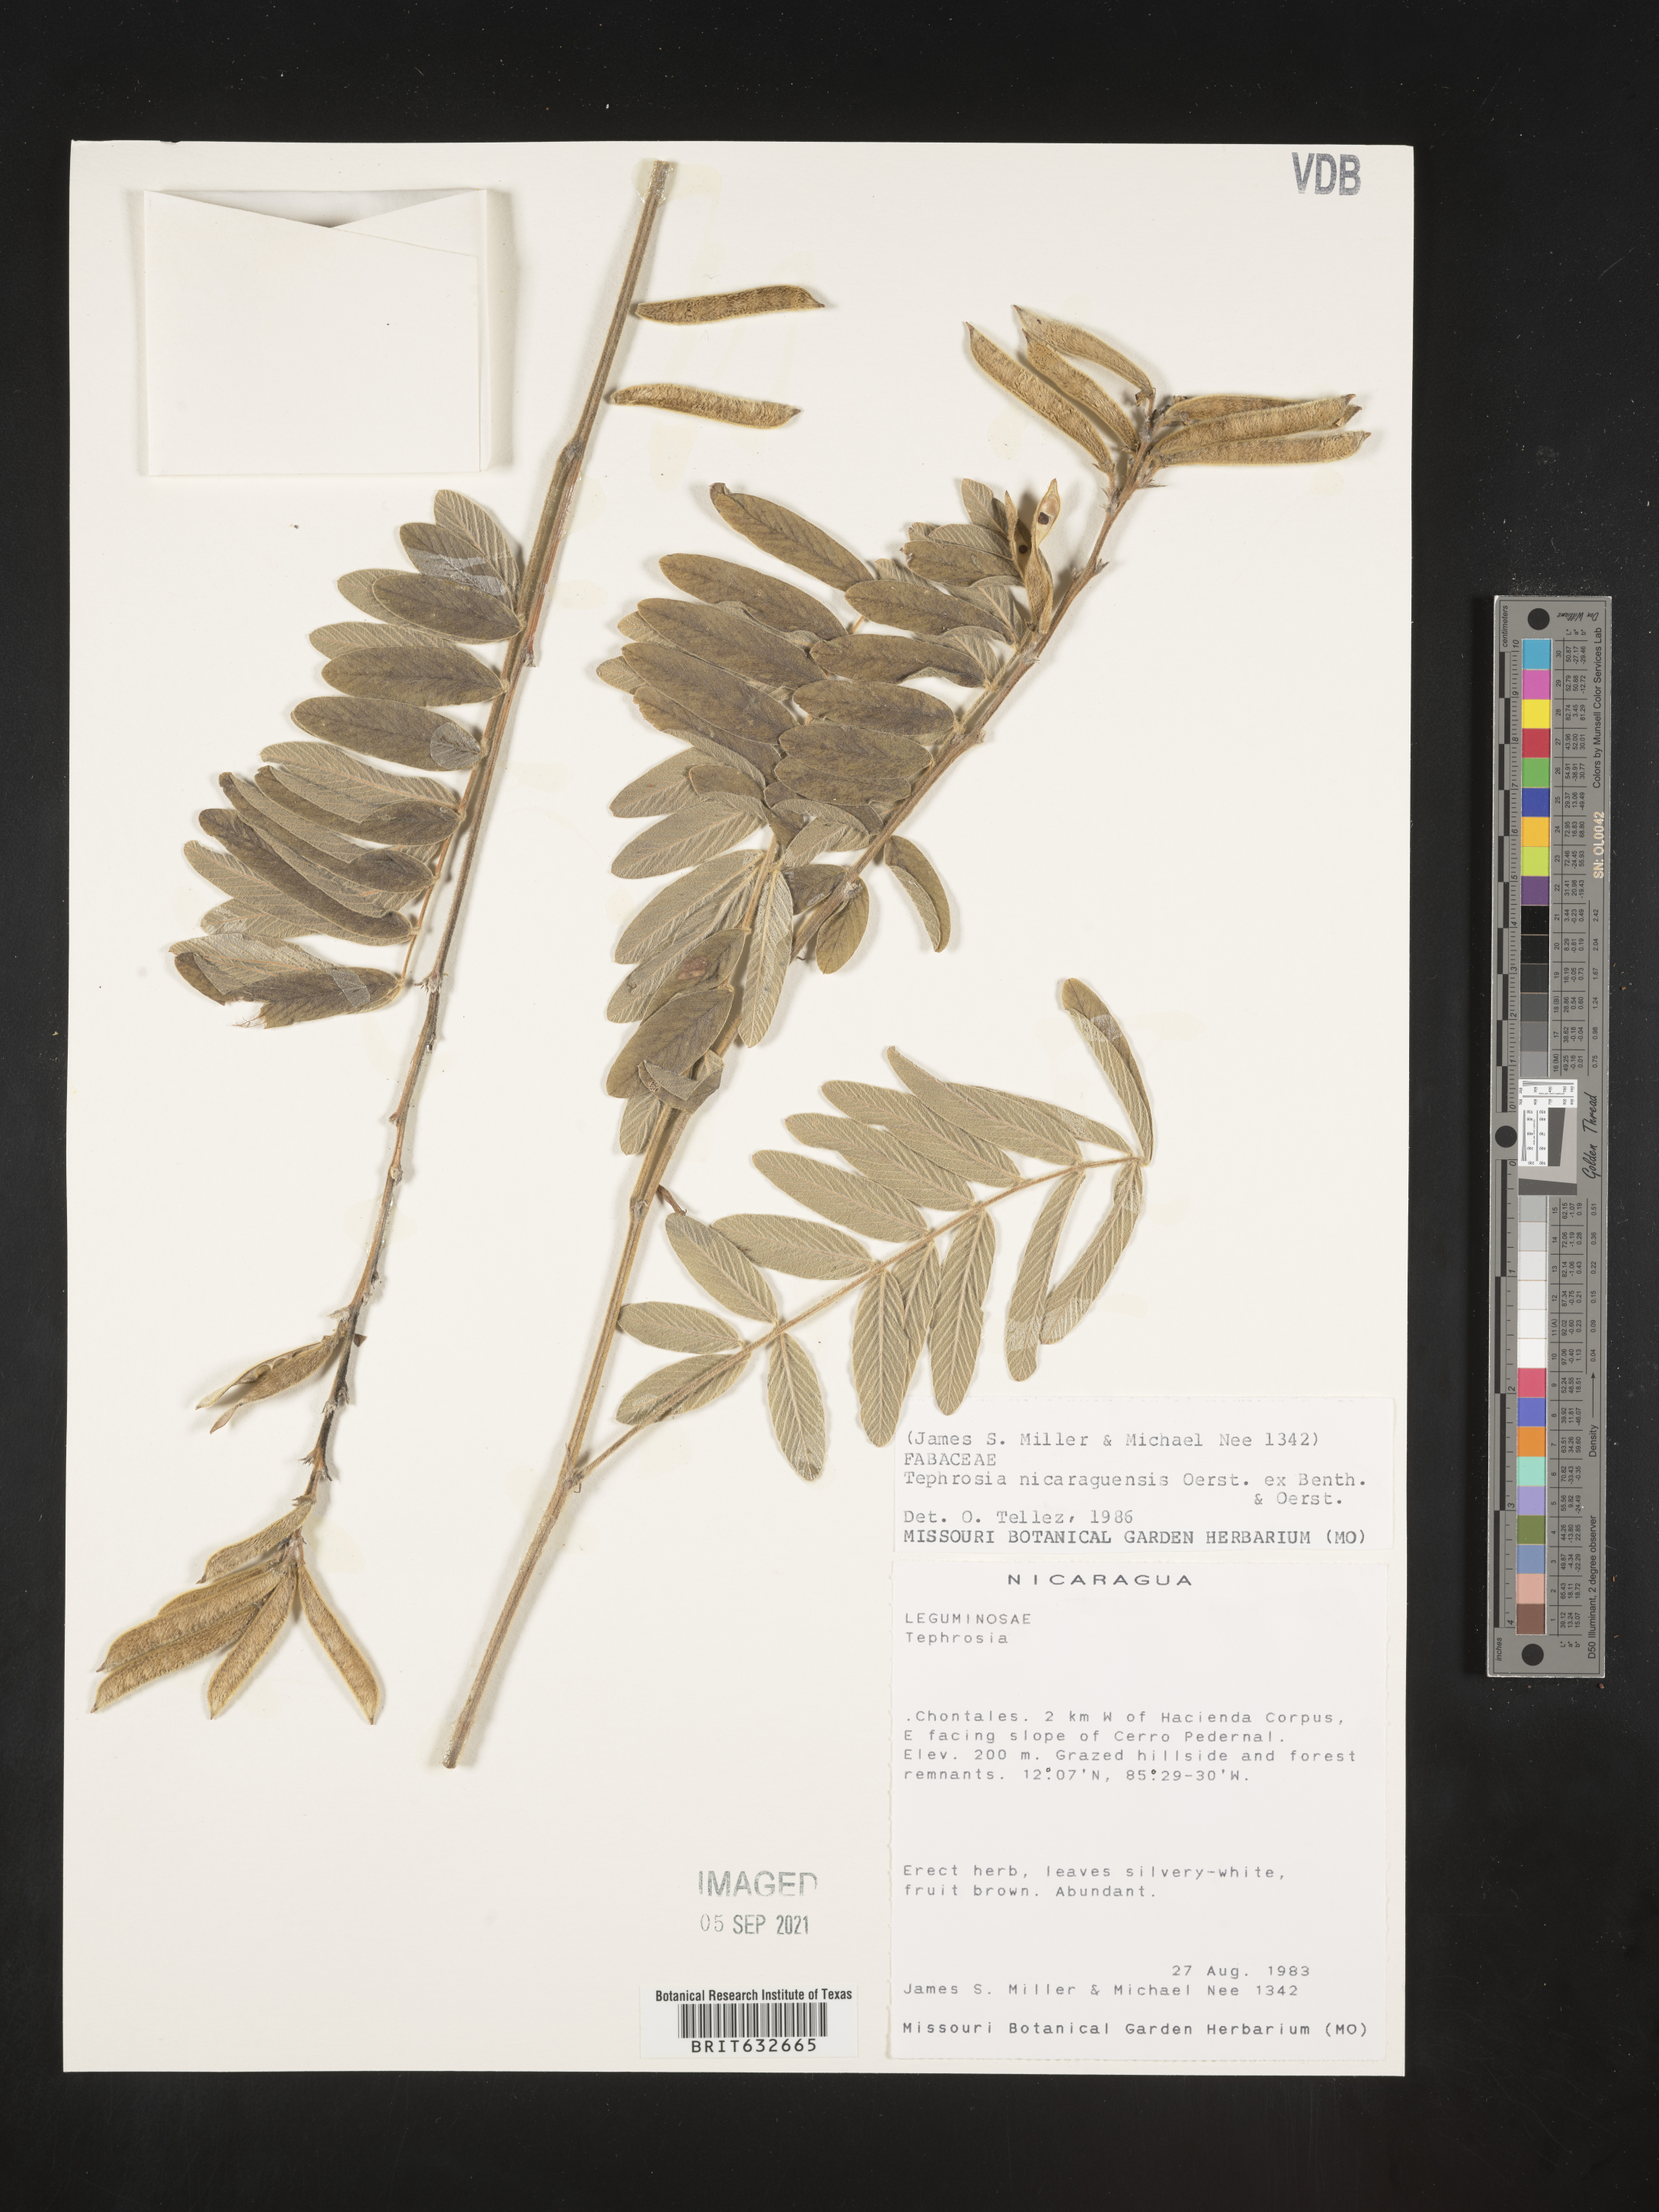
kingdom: Plantae
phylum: Tracheophyta
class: Magnoliopsida
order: Fabales
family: Fabaceae
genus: Tephrosia
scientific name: Tephrosia
